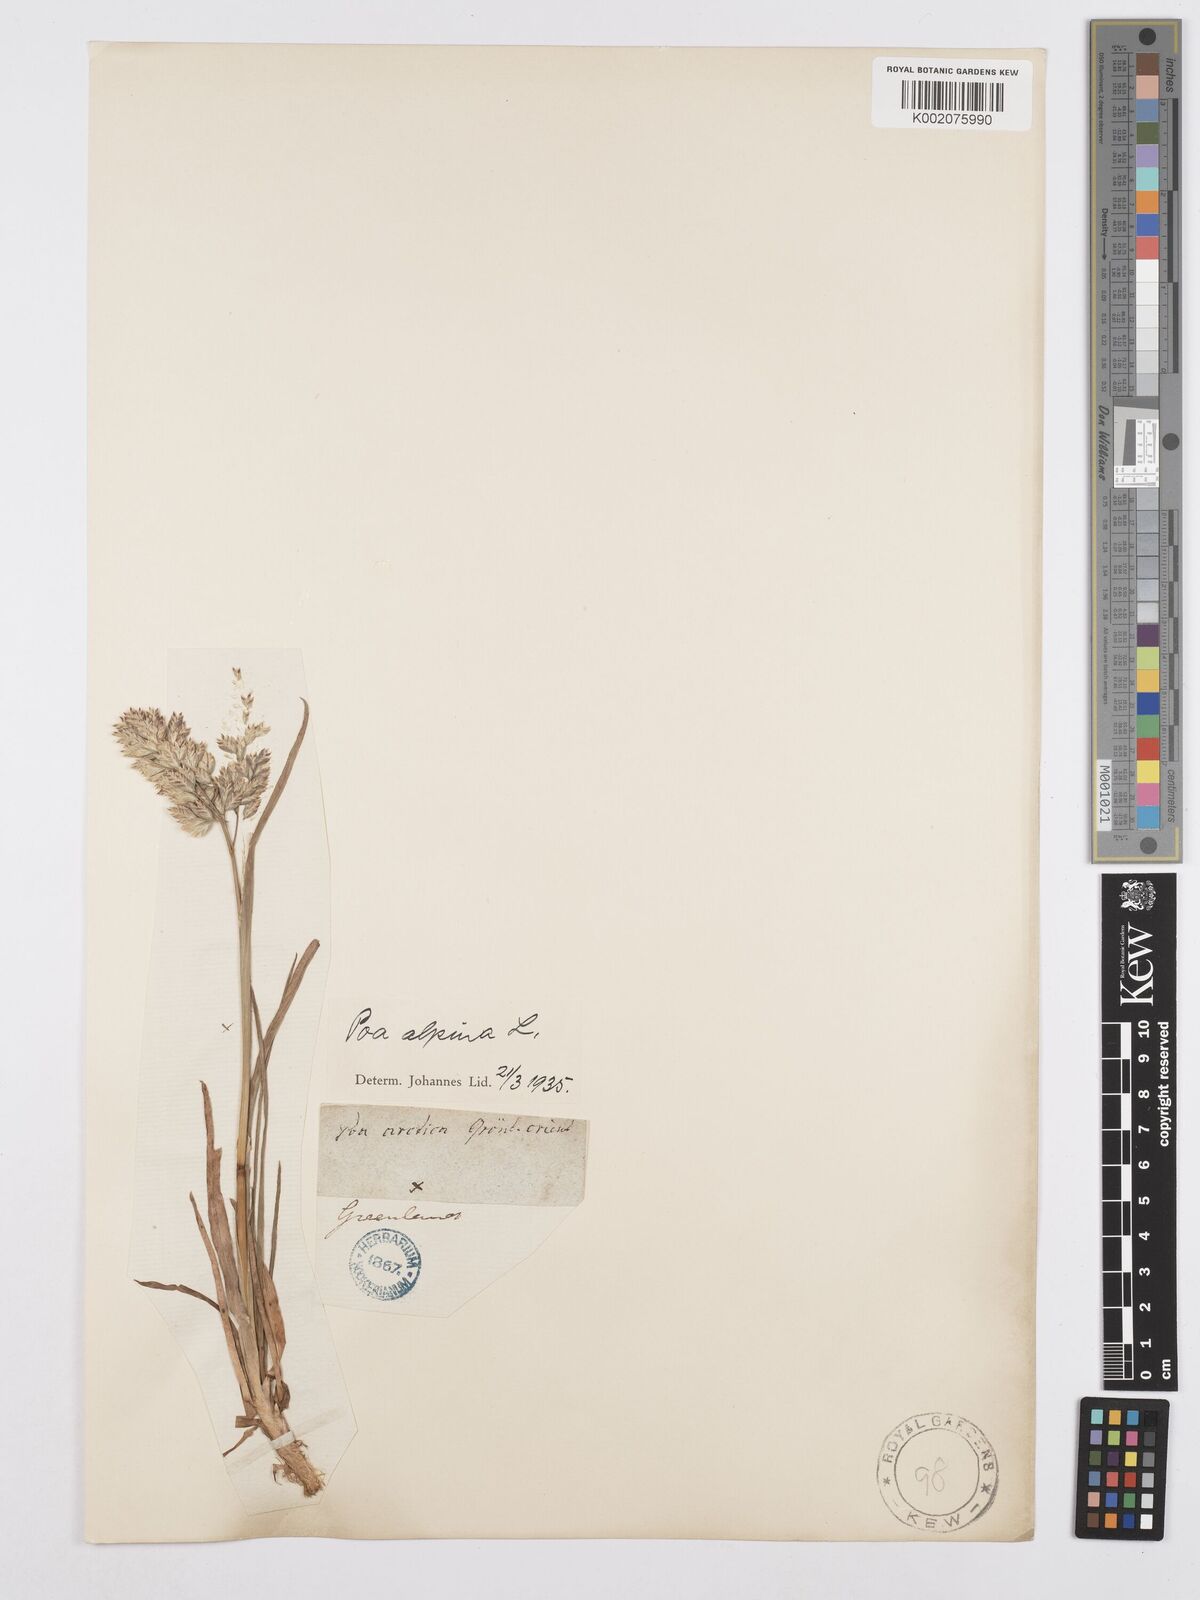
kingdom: Plantae
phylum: Tracheophyta
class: Liliopsida
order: Poales
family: Poaceae
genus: Poa
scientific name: Poa alpina
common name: Alpine bluegrass
